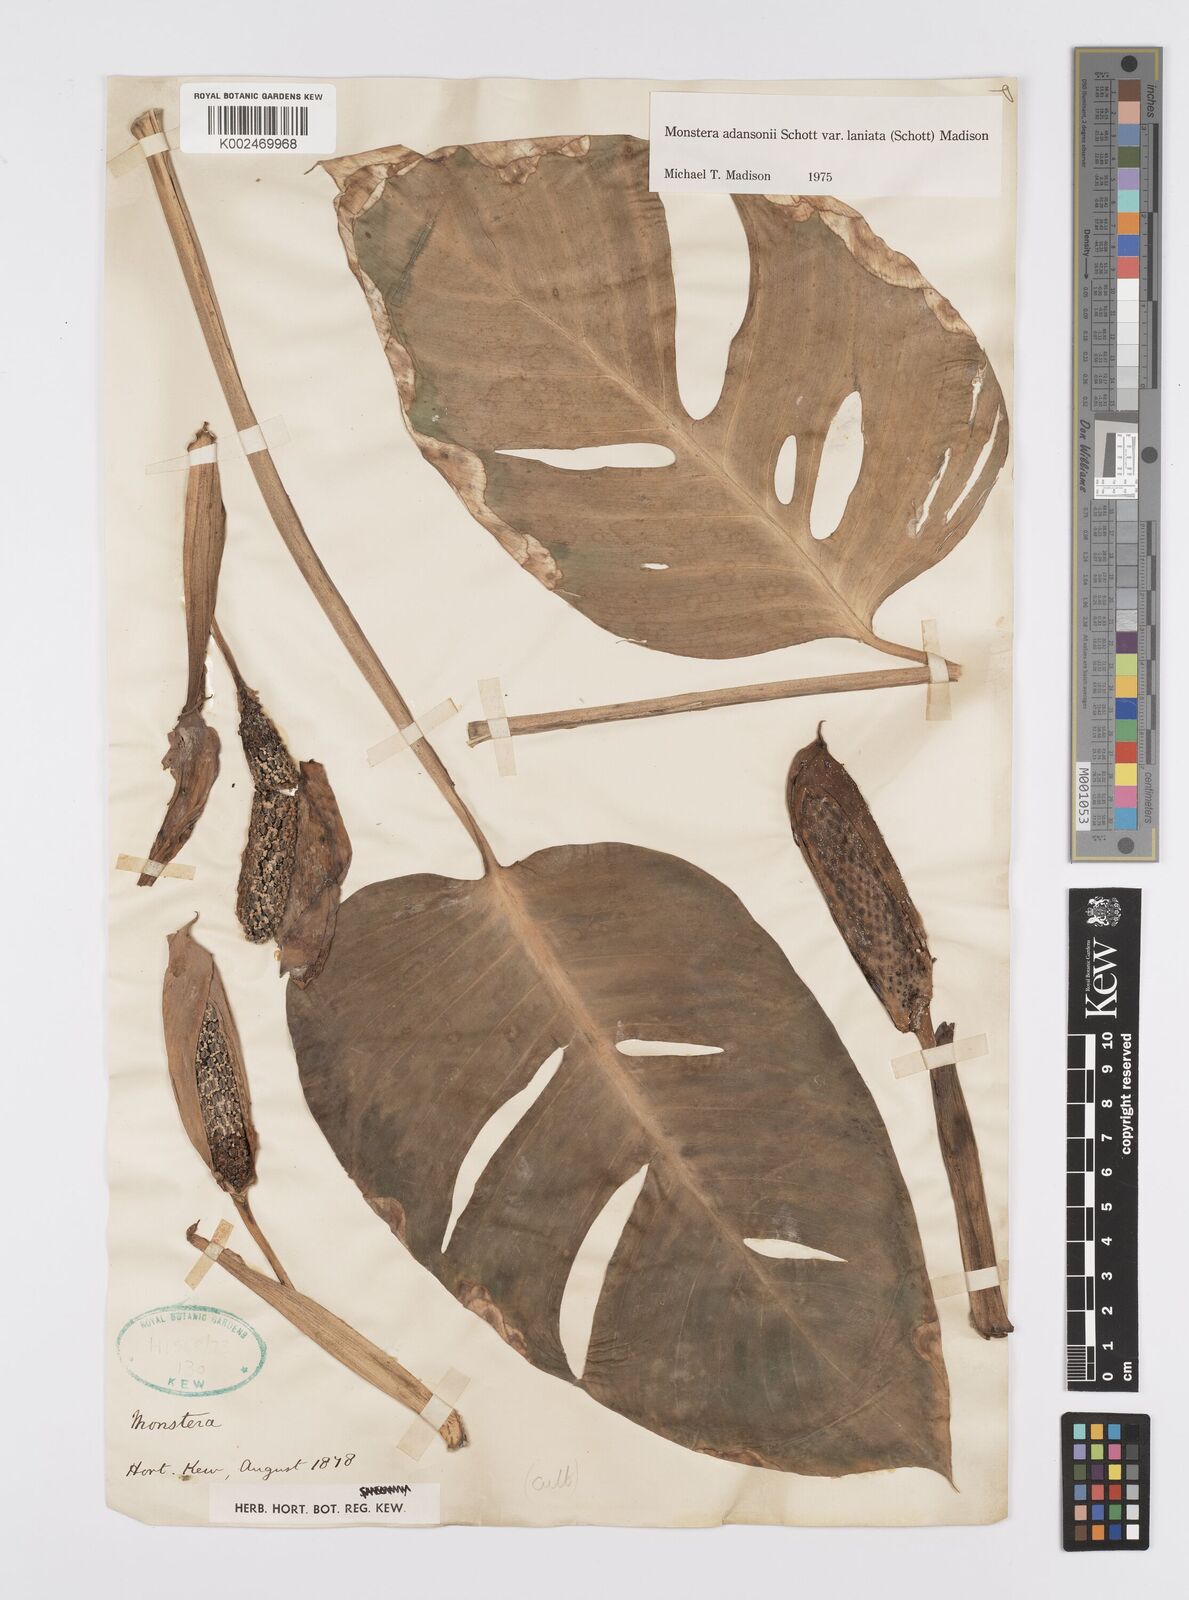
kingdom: Plantae
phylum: Tracheophyta
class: Liliopsida
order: Alismatales
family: Araceae
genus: Monstera
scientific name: Monstera adansonii
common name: Tarovine
